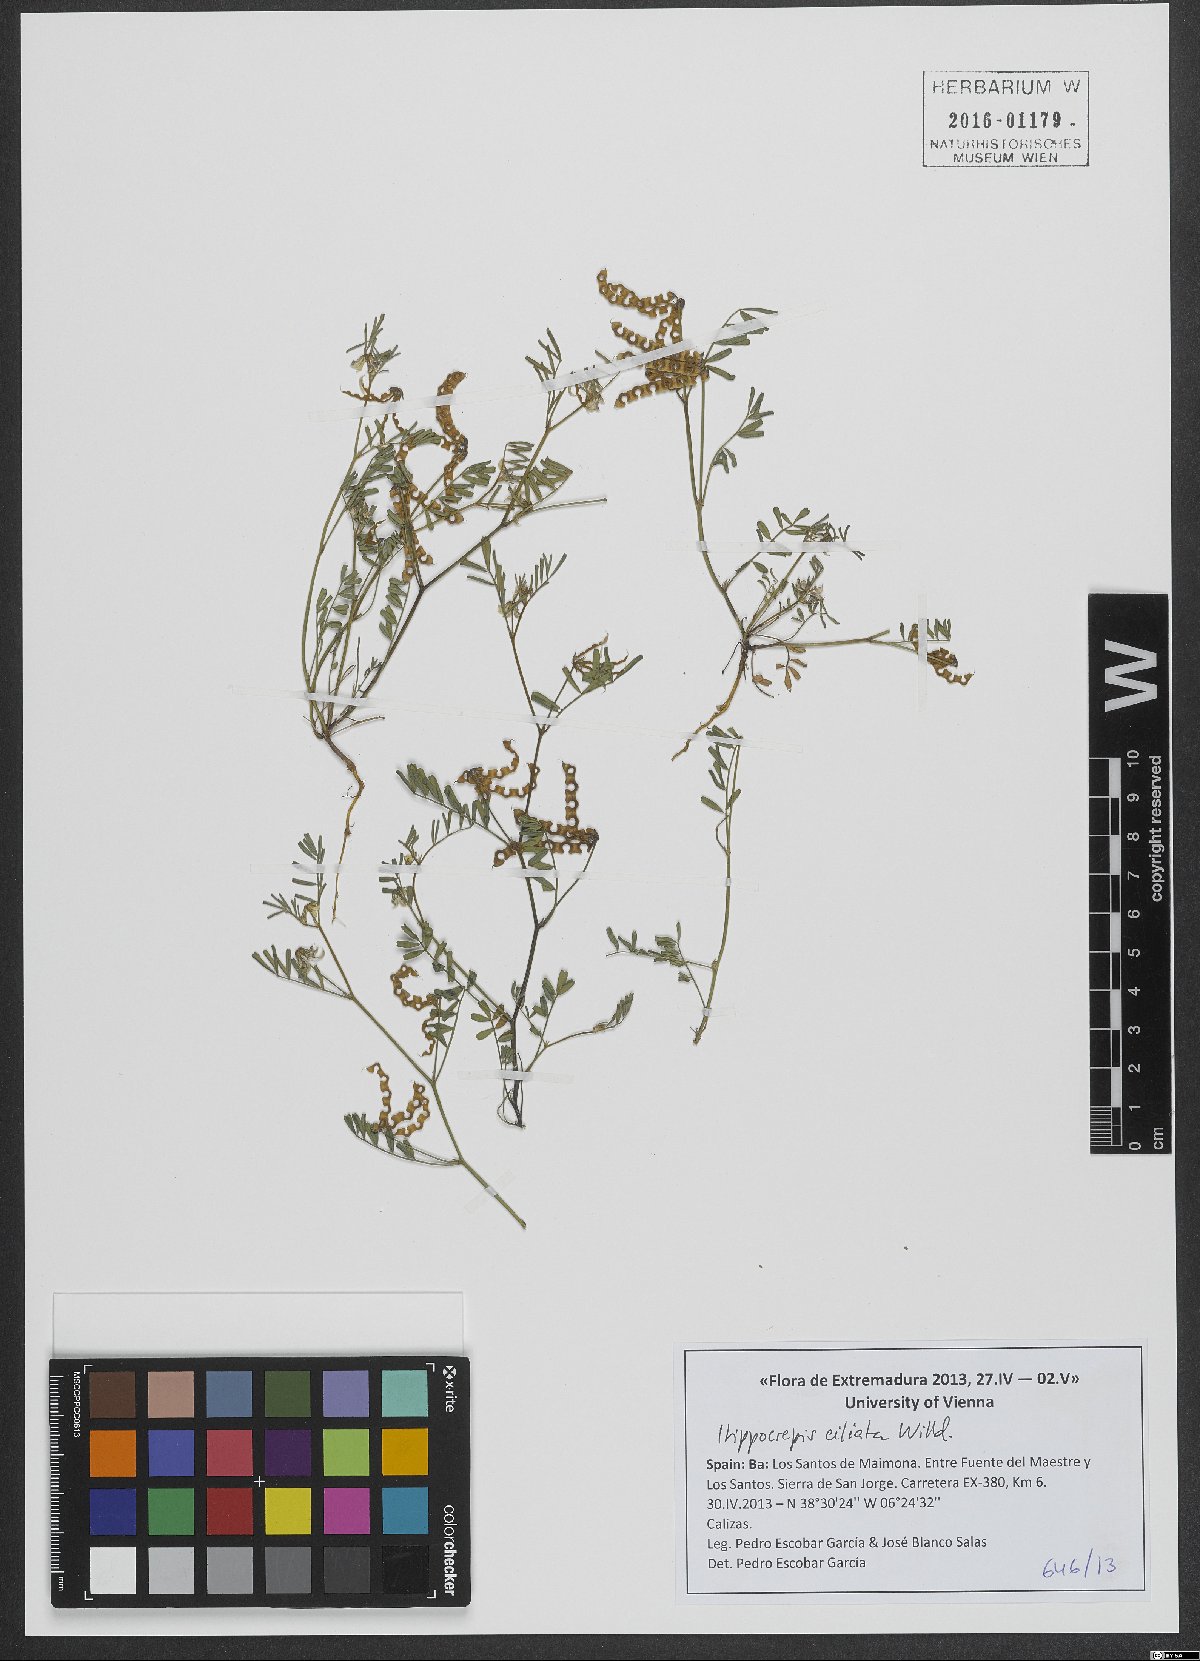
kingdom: Plantae
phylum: Tracheophyta
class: Magnoliopsida
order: Fabales
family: Fabaceae
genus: Hippocrepis
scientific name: Hippocrepis ciliata
